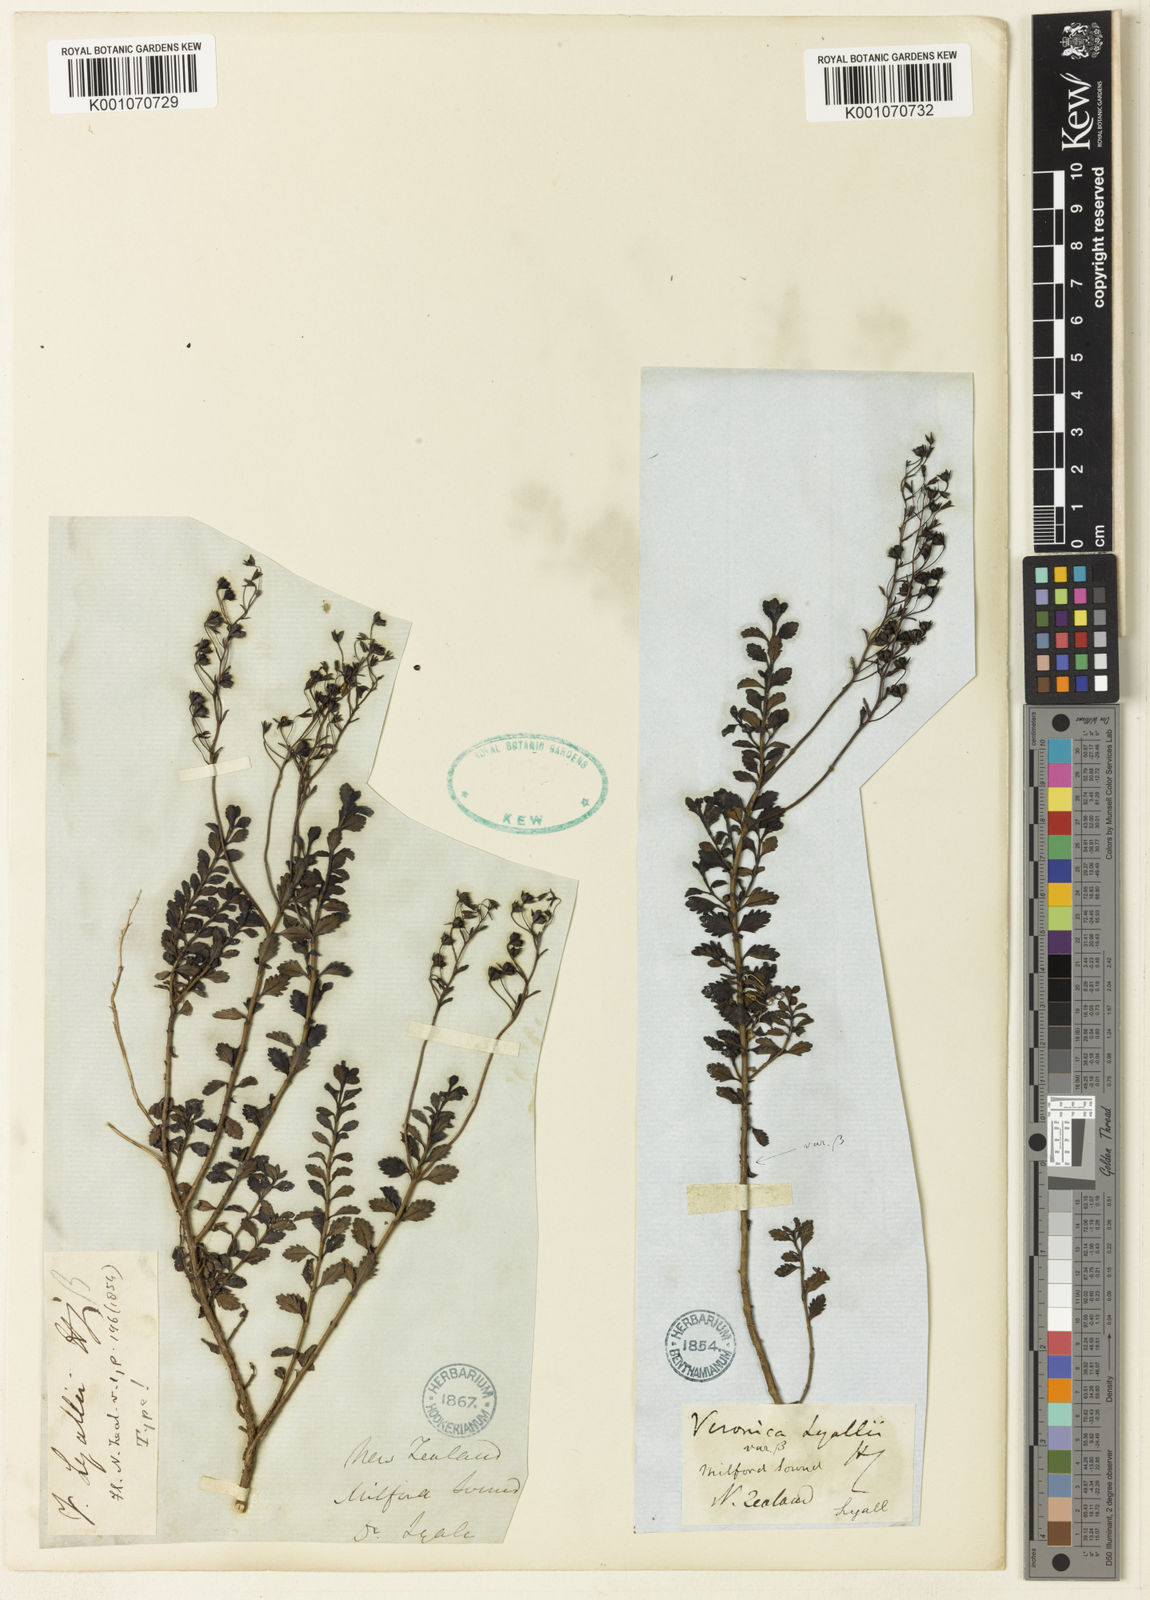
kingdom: Plantae
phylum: Tracheophyta
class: Magnoliopsida
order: Lamiales
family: Plantaginaceae
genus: Veronica
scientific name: Veronica lyallii
